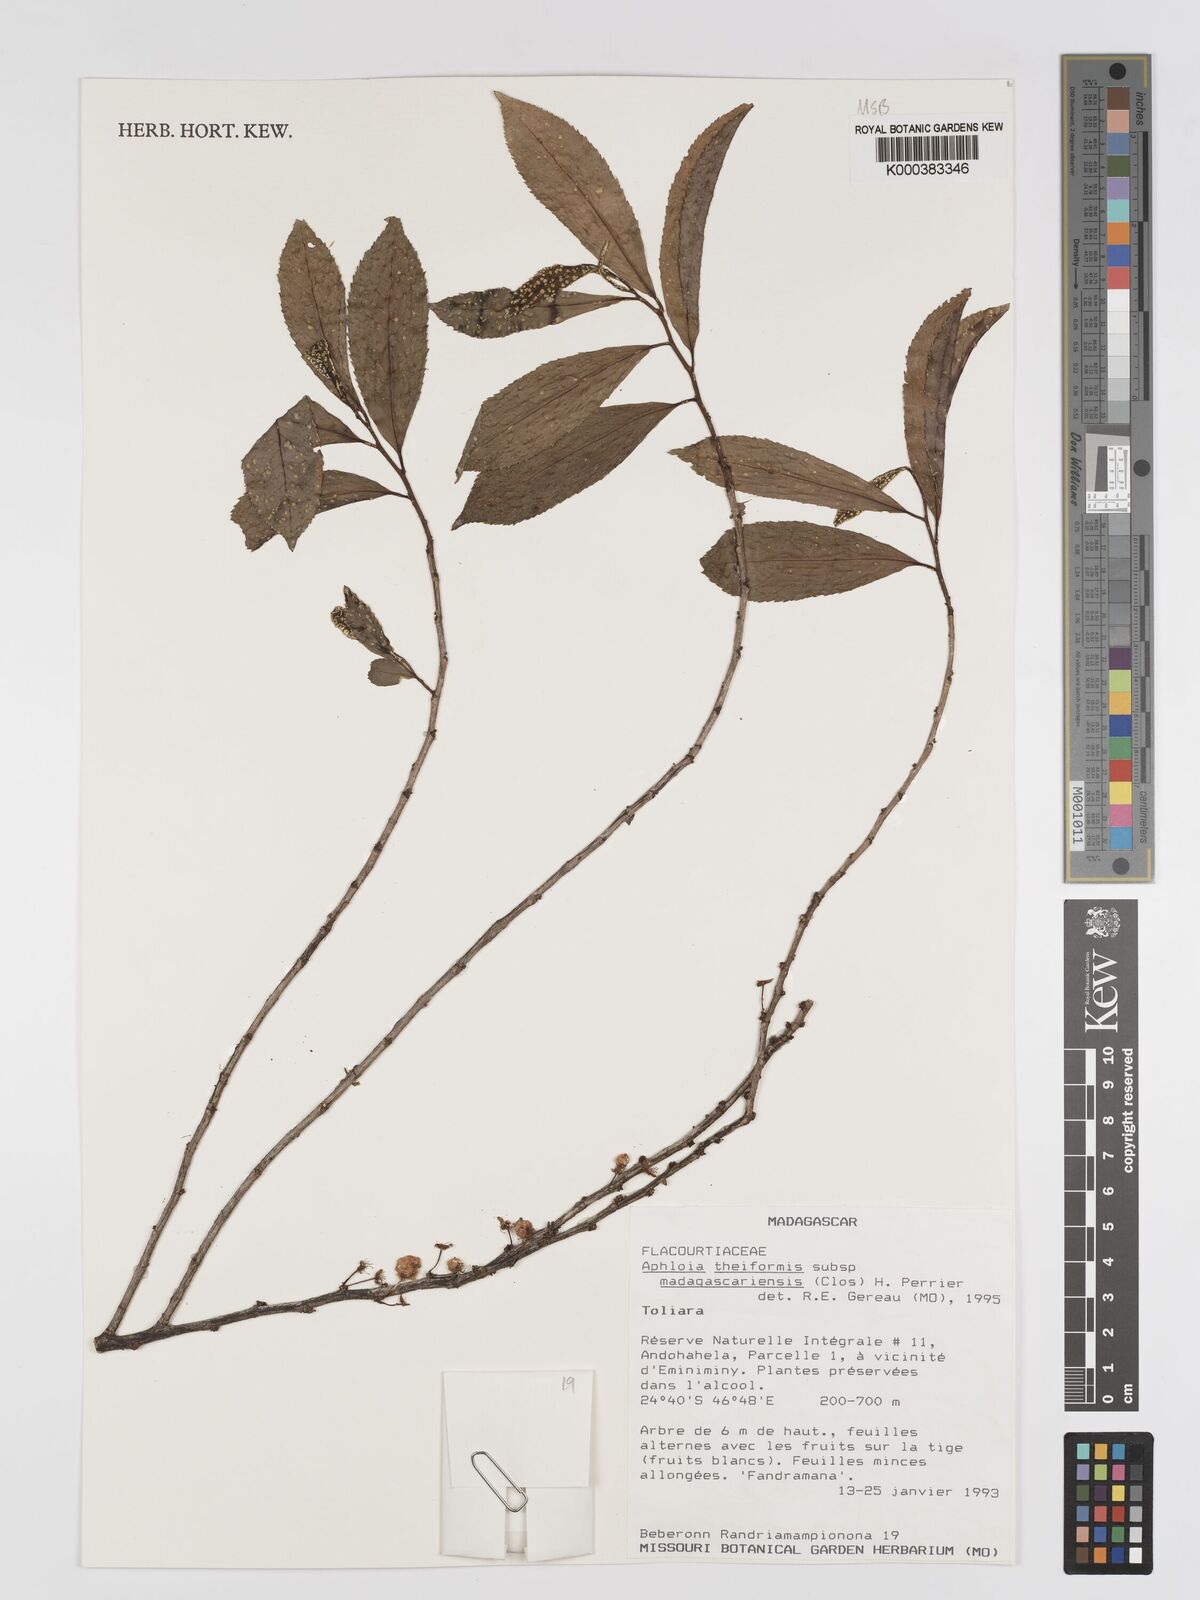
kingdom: Plantae
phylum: Tracheophyta
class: Magnoliopsida
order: Crossosomatales
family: Aphloiaceae
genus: Aphloia
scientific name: Aphloia theiformis
